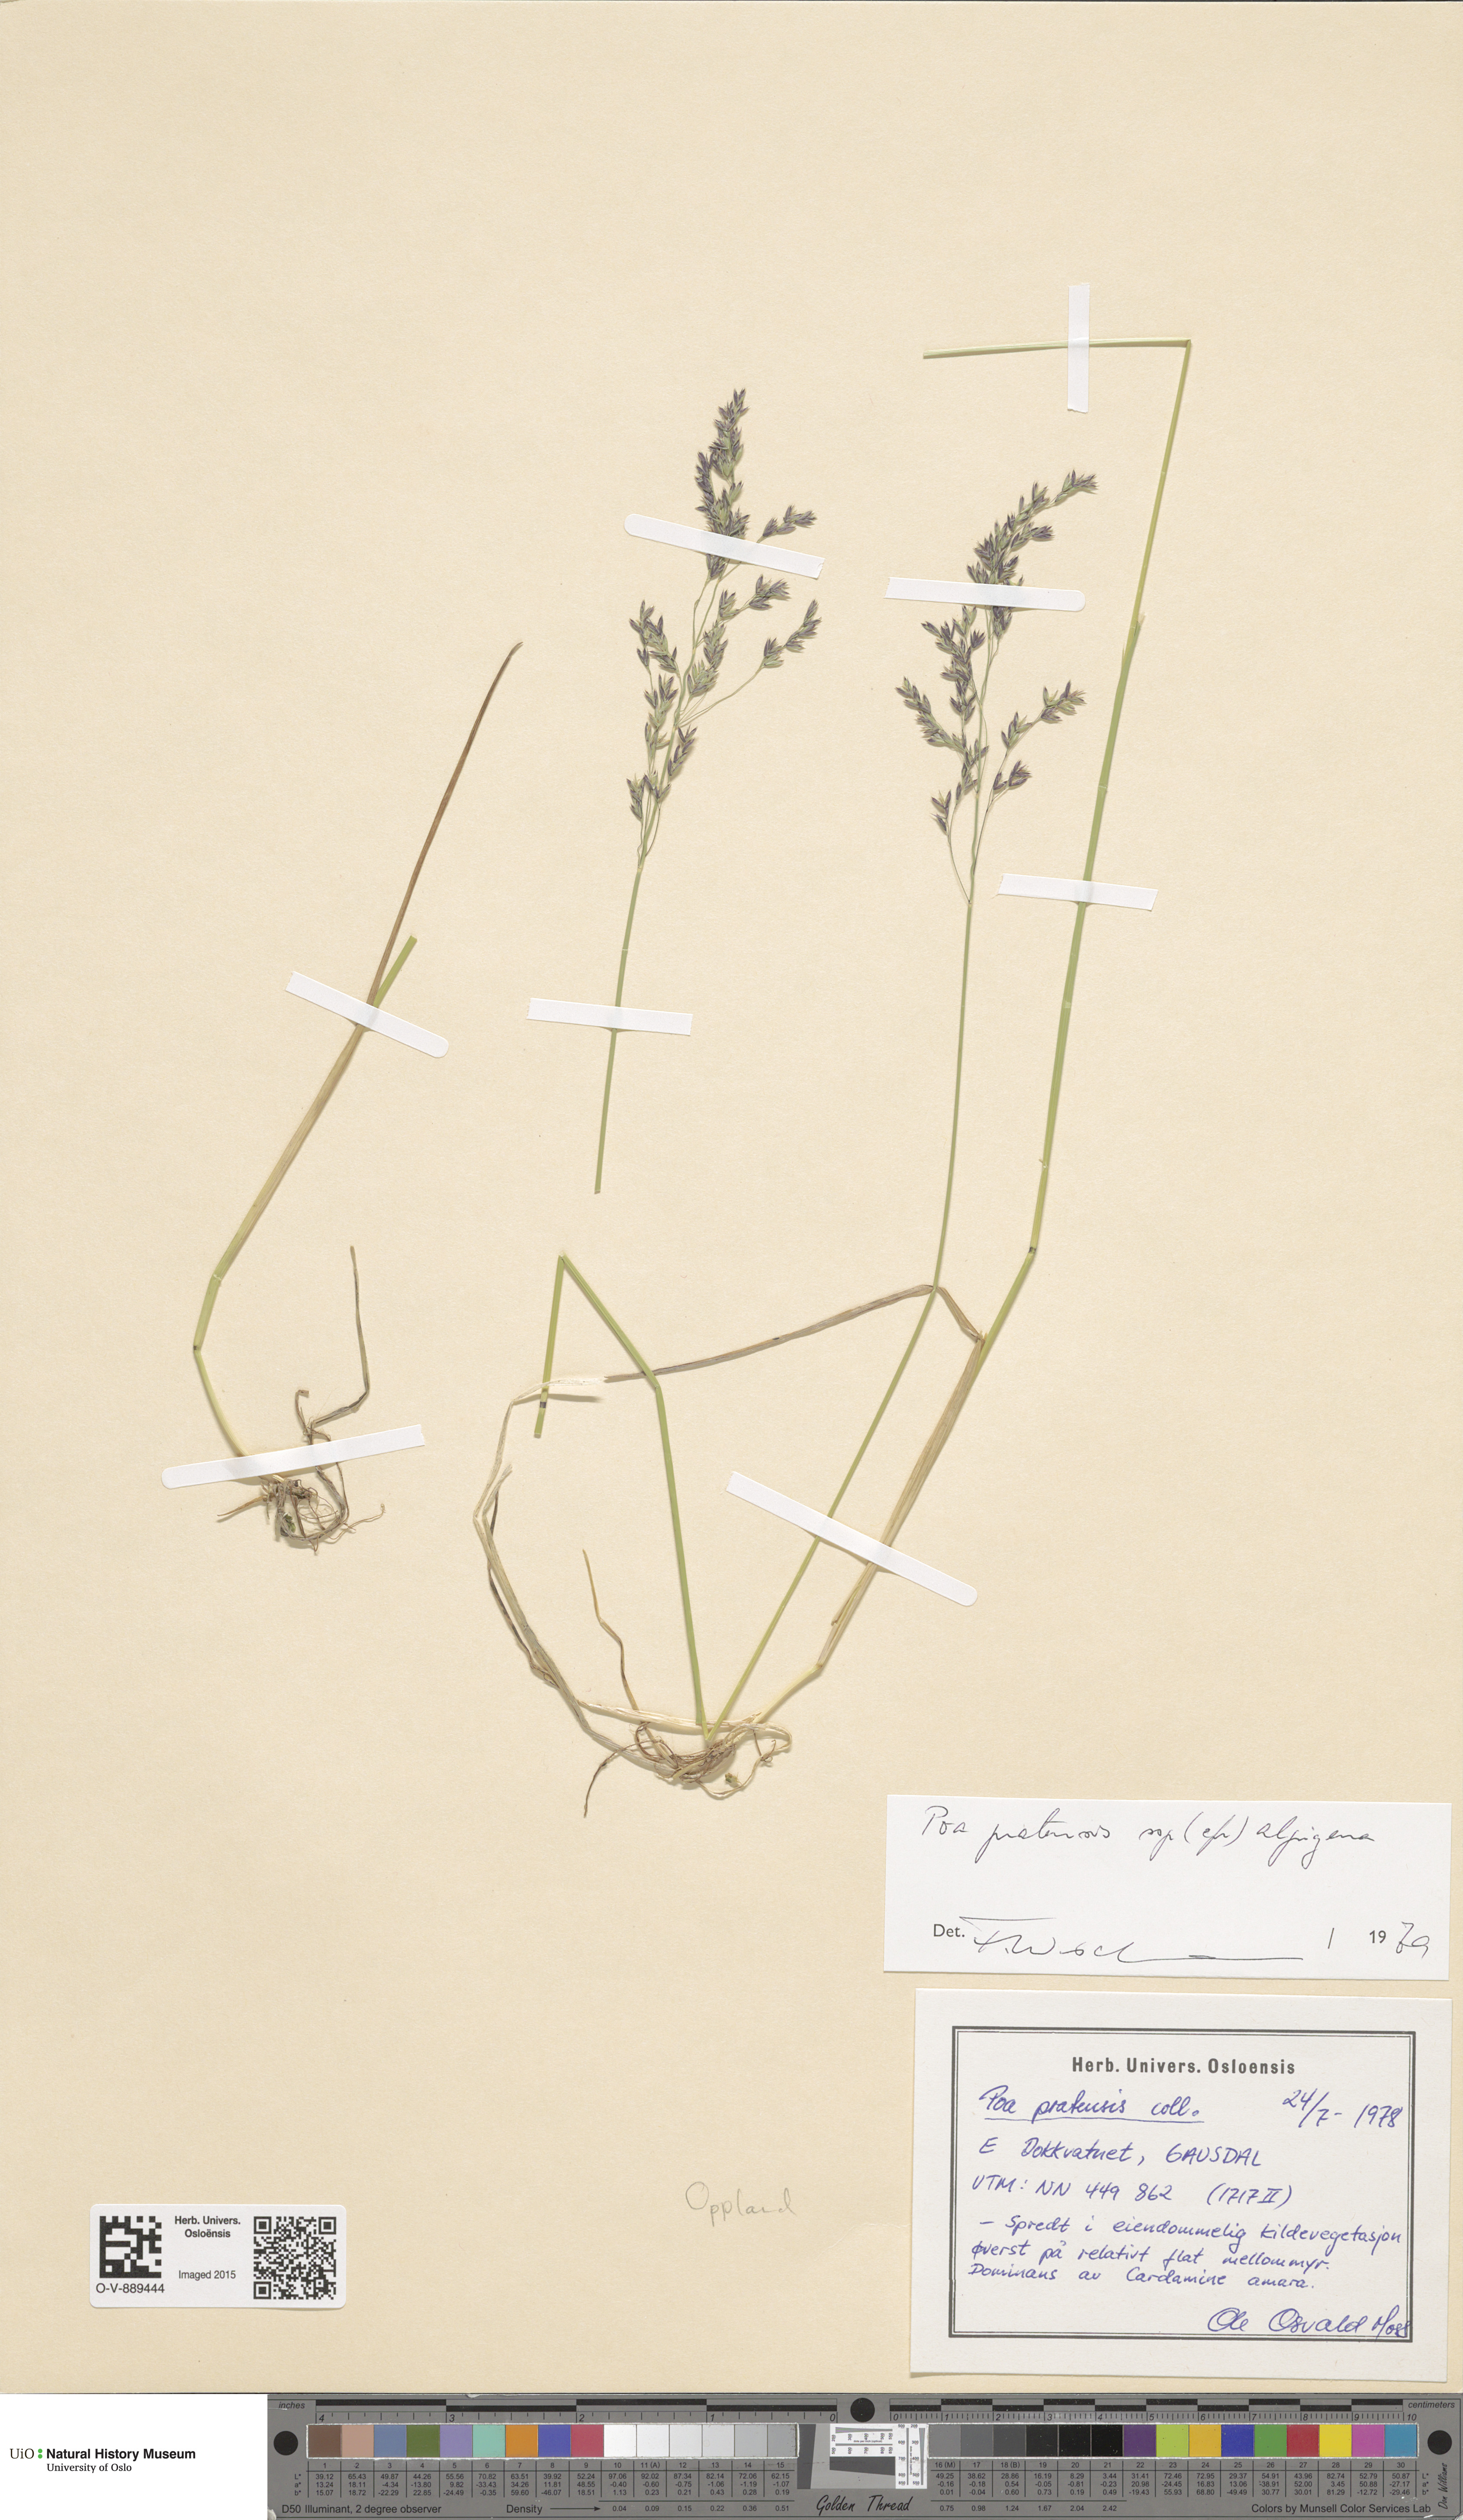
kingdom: Plantae
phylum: Tracheophyta
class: Liliopsida
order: Poales
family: Poaceae
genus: Poa
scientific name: Poa alpigena
